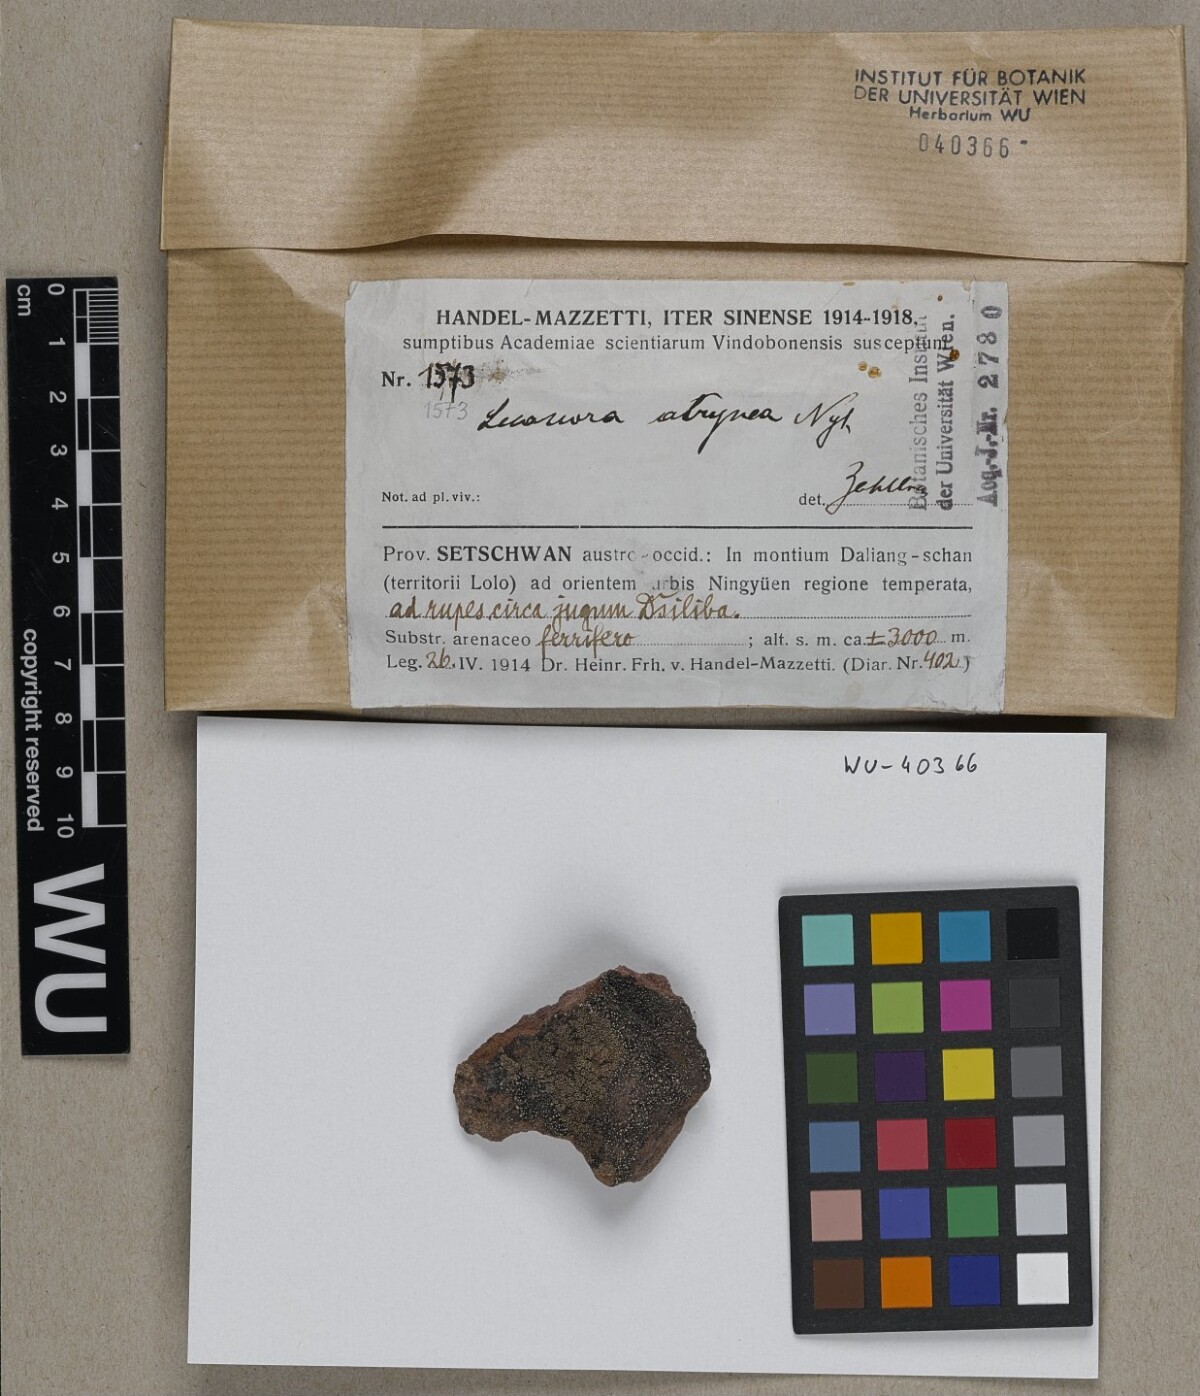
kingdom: Fungi
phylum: Ascomycota
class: Lecanoromycetes
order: Lecanorales
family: Lecanoraceae
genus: Lecanora
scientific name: Lecanora cenisia
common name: Smoky rim lichen
